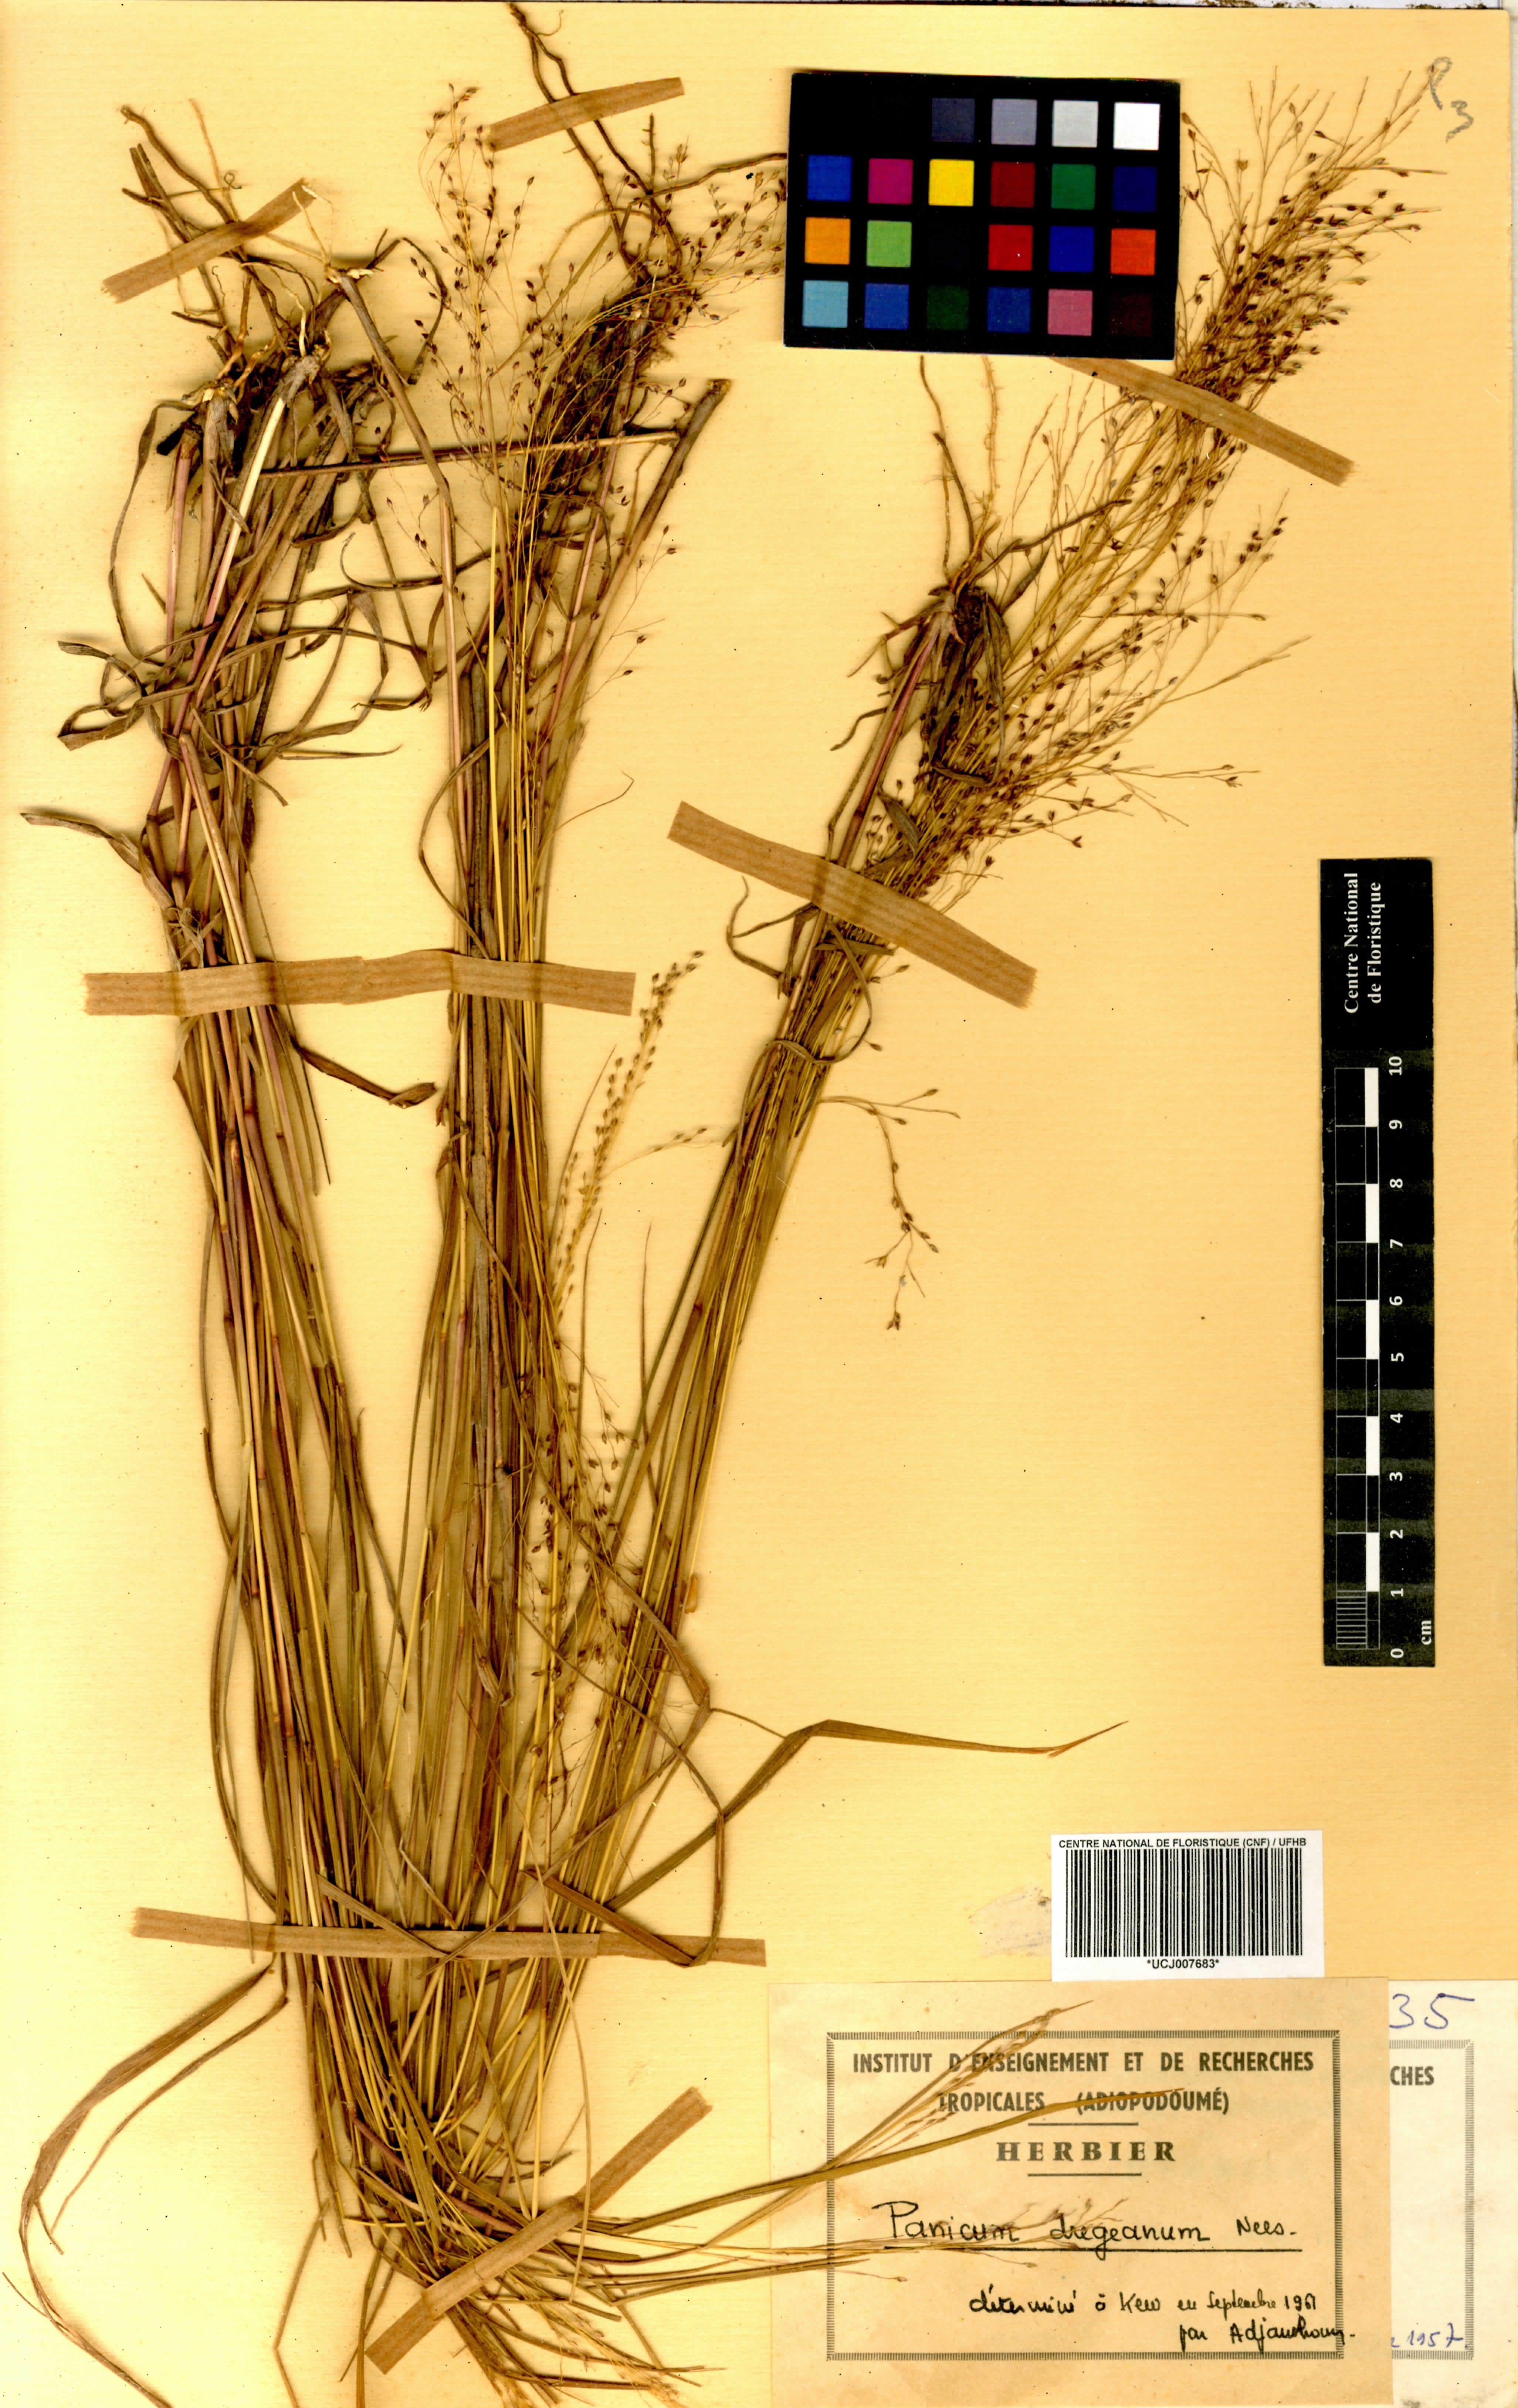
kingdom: Plantae
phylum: Tracheophyta
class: Liliopsida
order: Poales
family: Poaceae
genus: Panicum
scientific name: Panicum dregeanum
